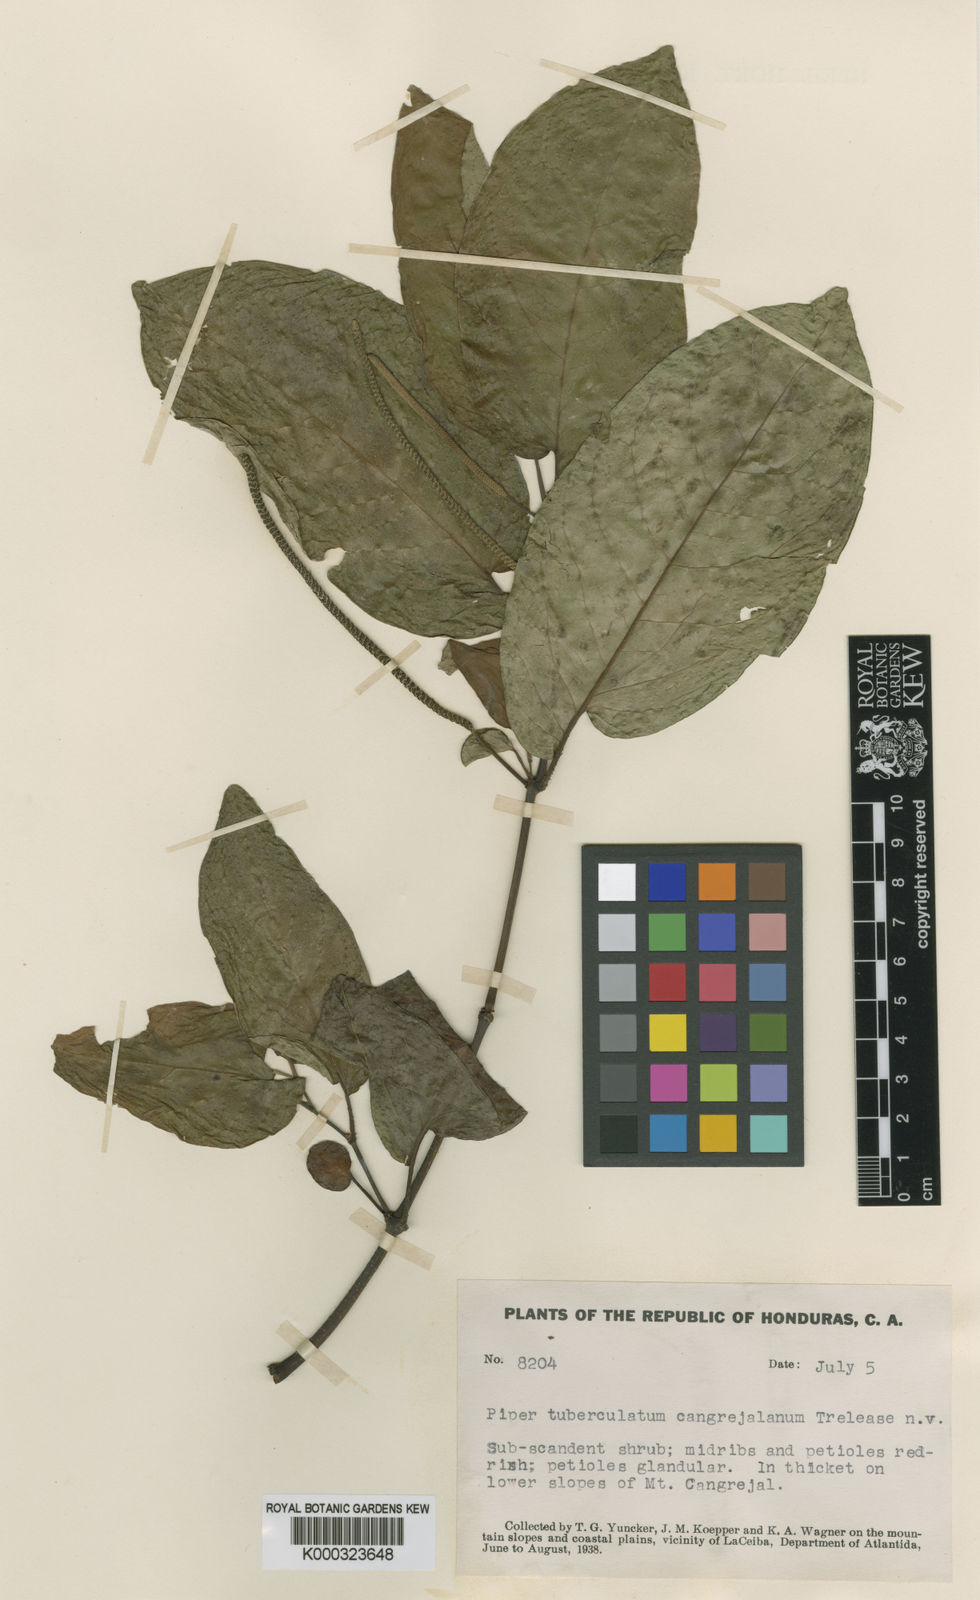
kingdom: Plantae
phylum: Tracheophyta
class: Magnoliopsida
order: Piperales
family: Piperaceae
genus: Piper
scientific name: Piper tuberculatum
